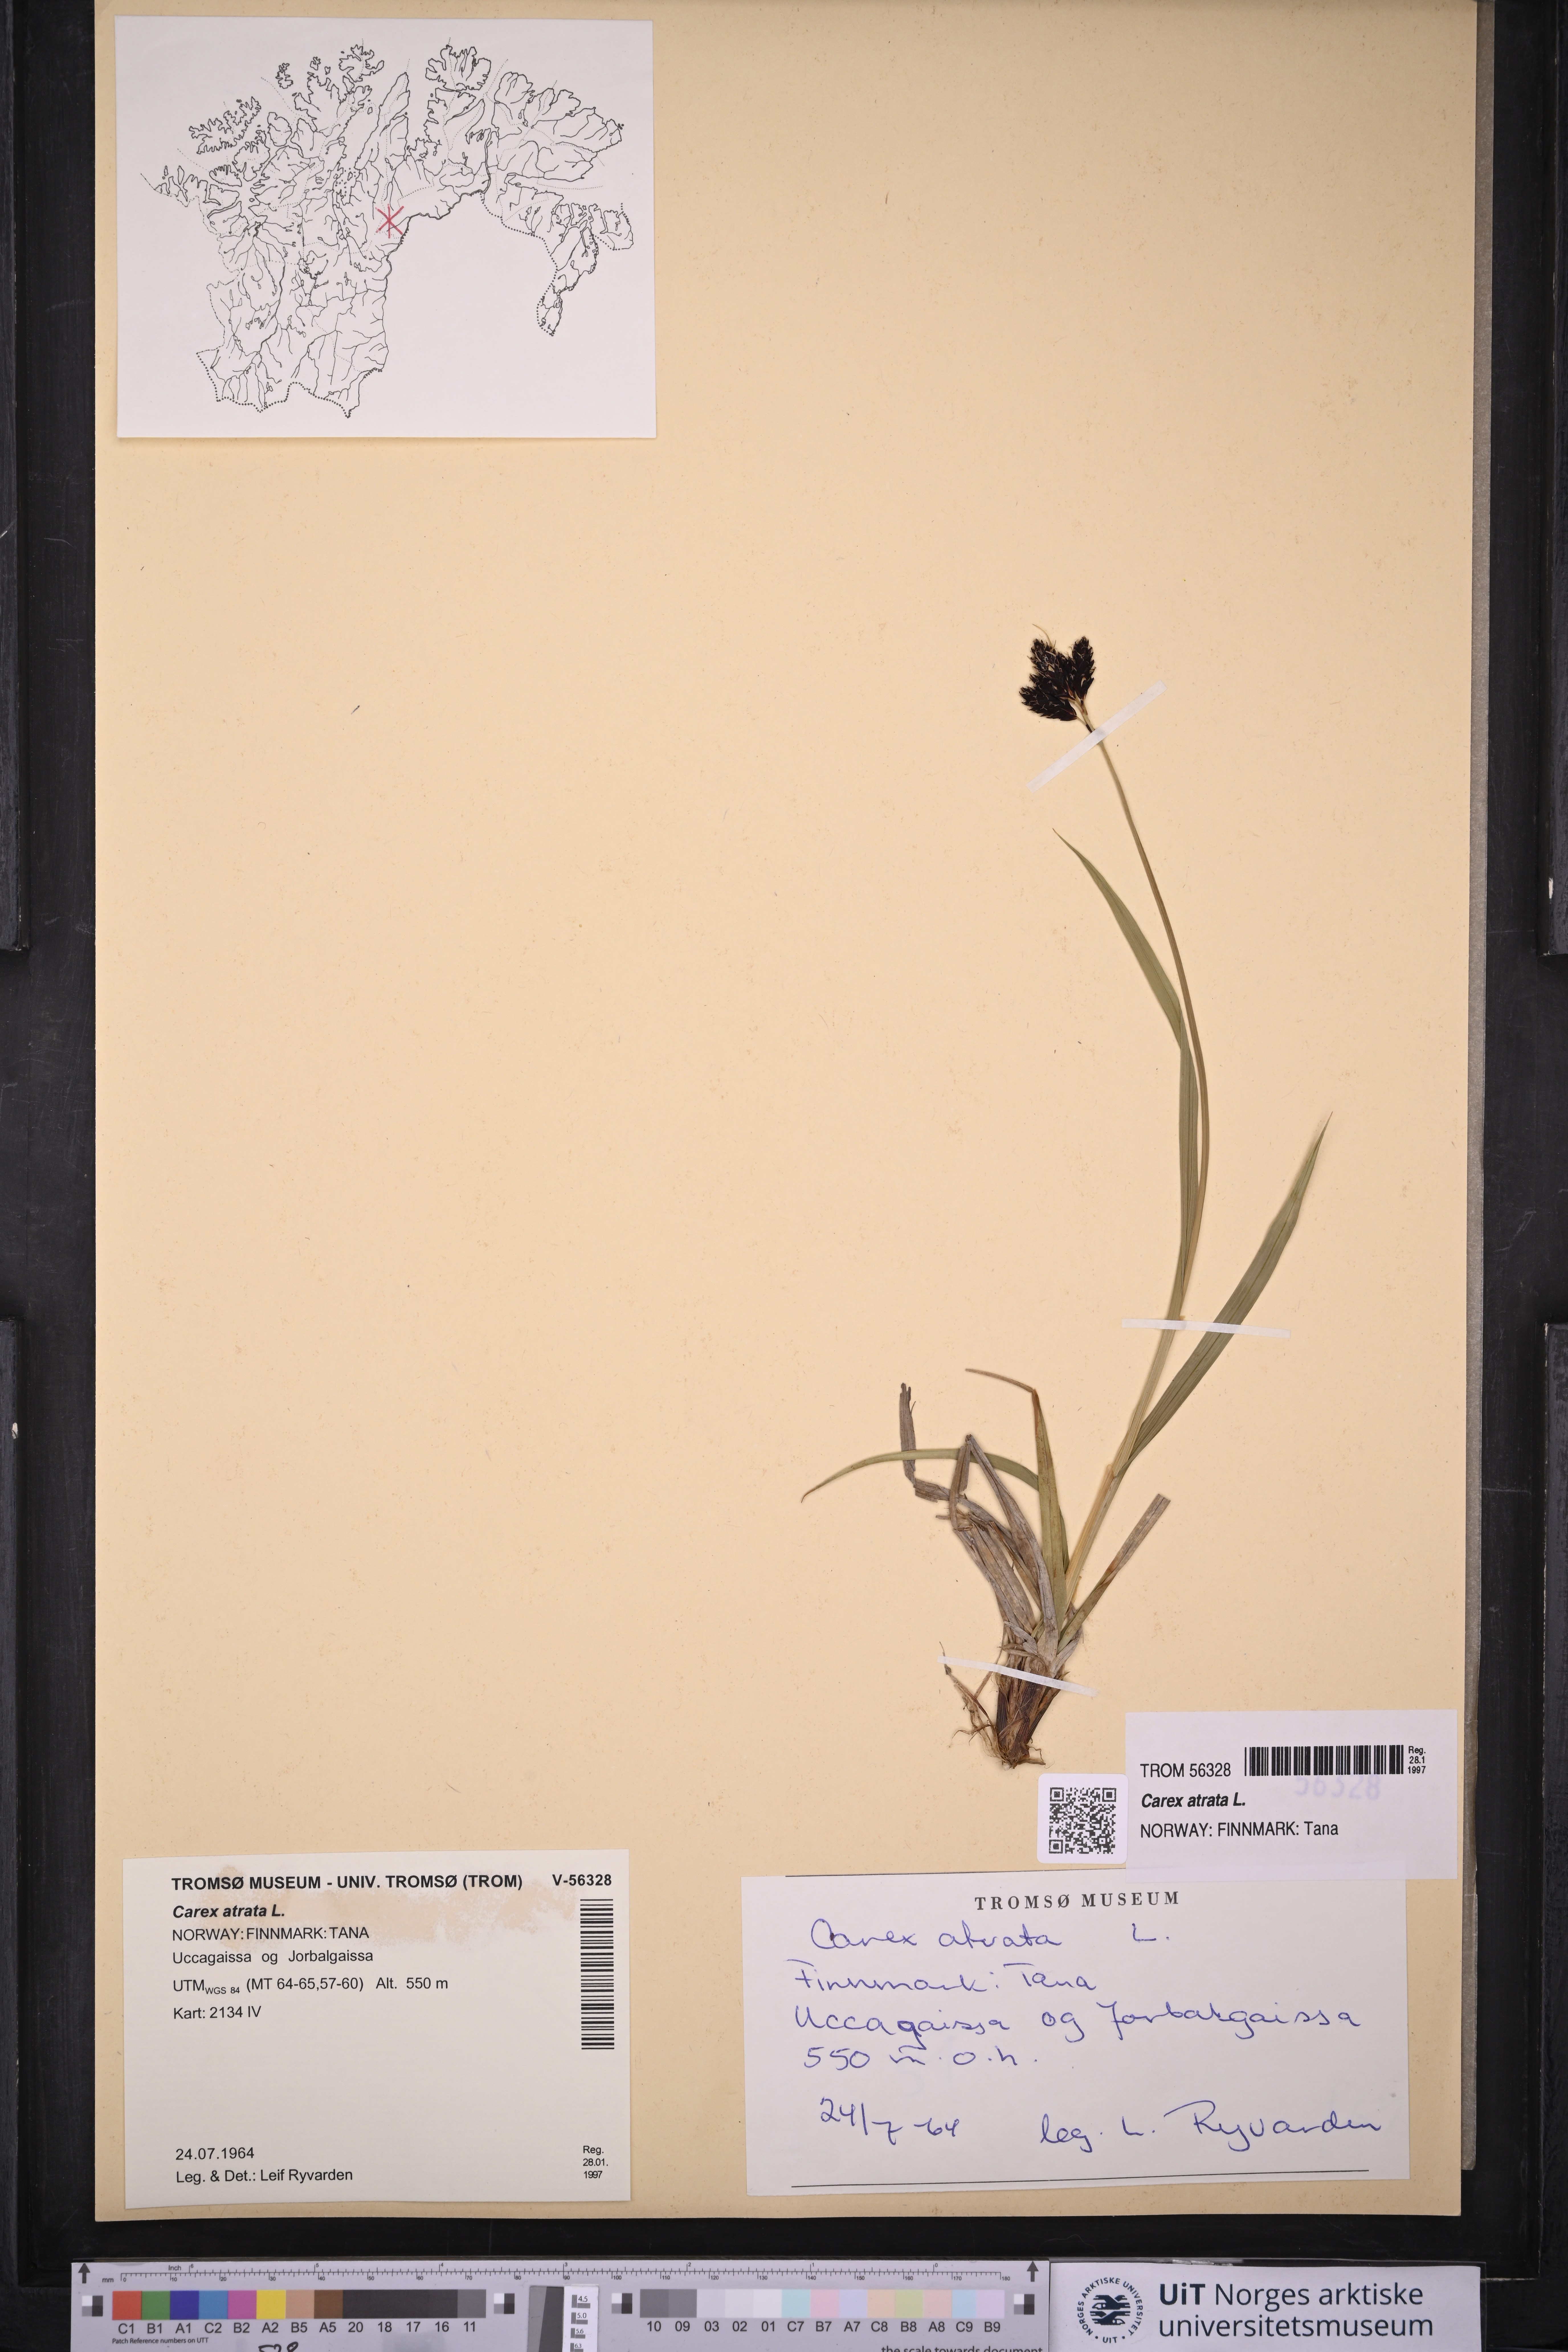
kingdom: Plantae
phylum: Tracheophyta
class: Liliopsida
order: Poales
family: Cyperaceae
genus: Carex
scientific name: Carex atrata
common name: Black alpine sedge
